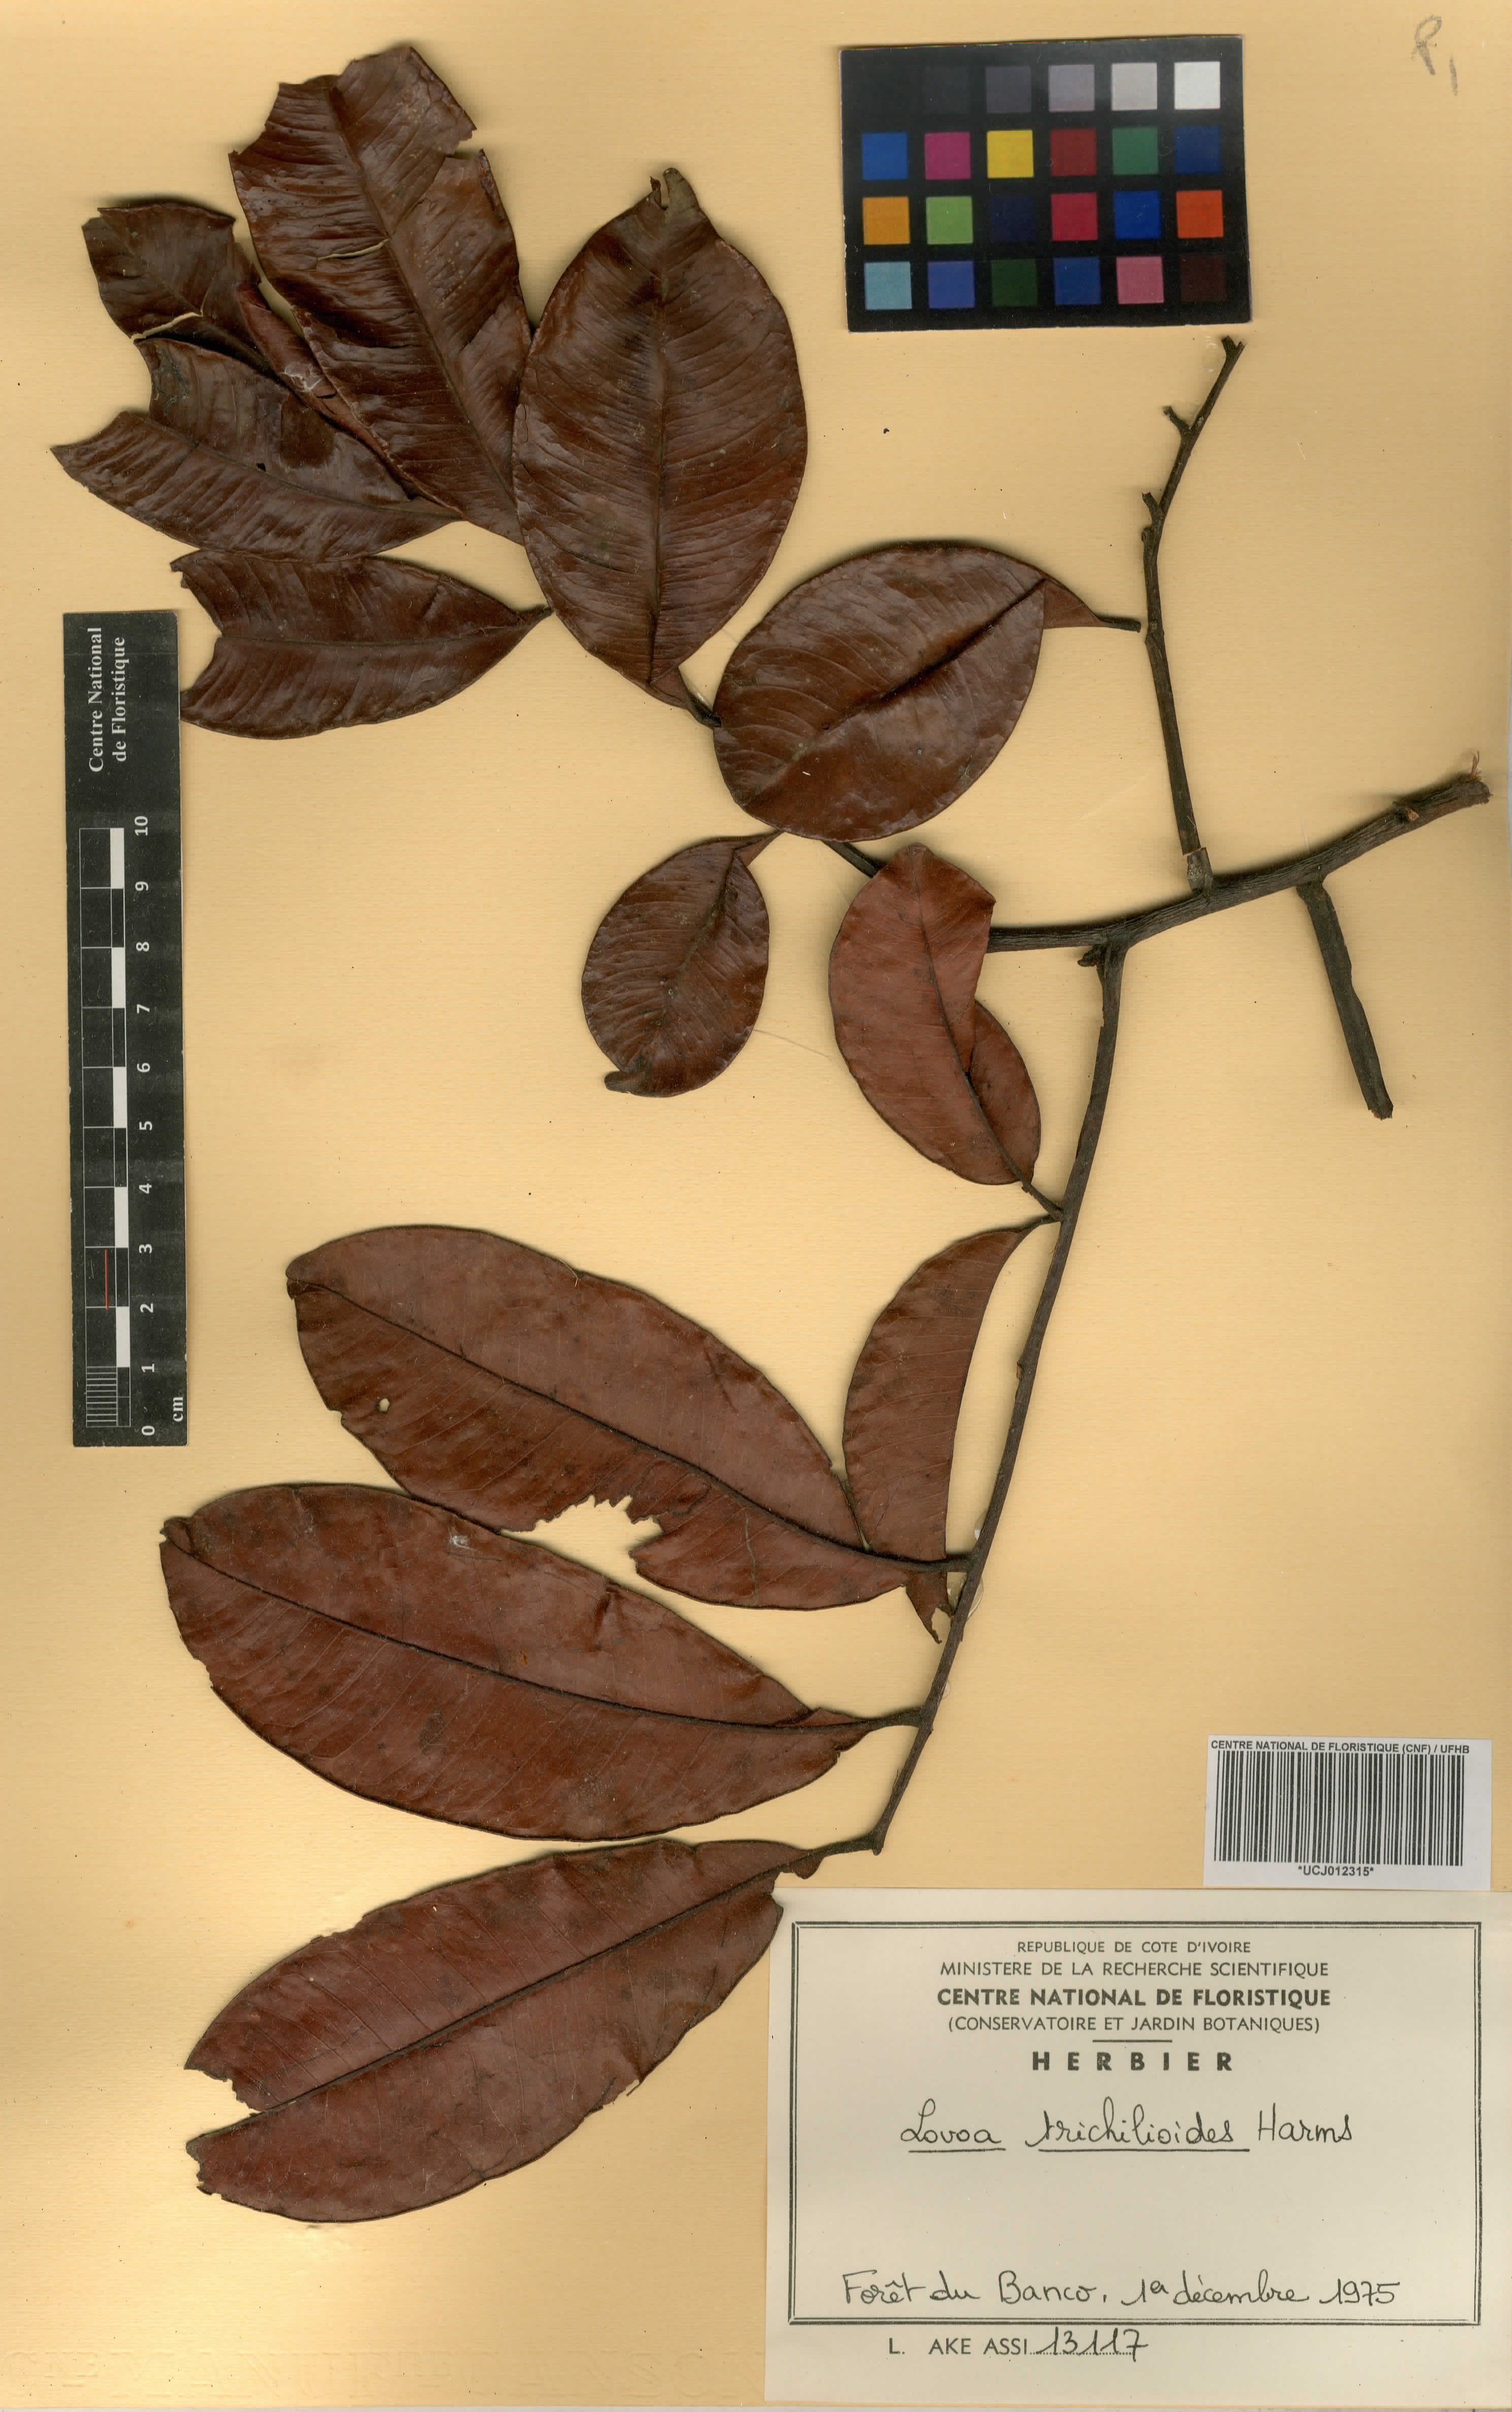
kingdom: Plantae
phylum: Tracheophyta
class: Magnoliopsida
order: Sapindales
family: Meliaceae
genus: Lovoa
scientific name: Lovoa trichilioides
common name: Congowood
